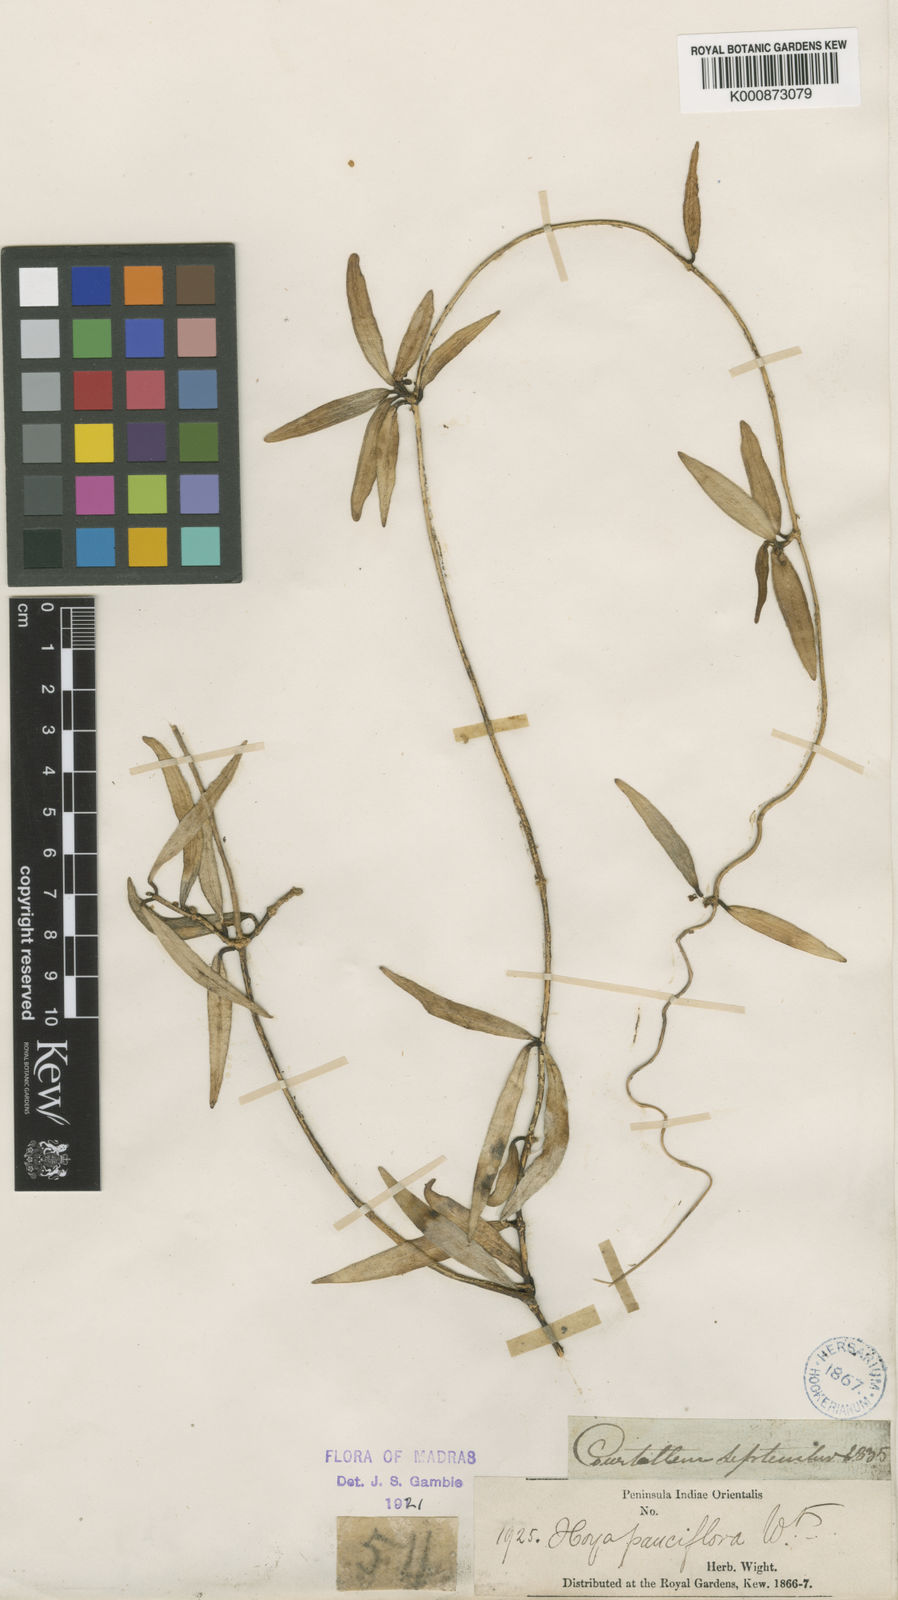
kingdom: Plantae
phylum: Tracheophyta
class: Magnoliopsida
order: Gentianales
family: Apocynaceae
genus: Hoya
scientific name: Hoya pauciflora
